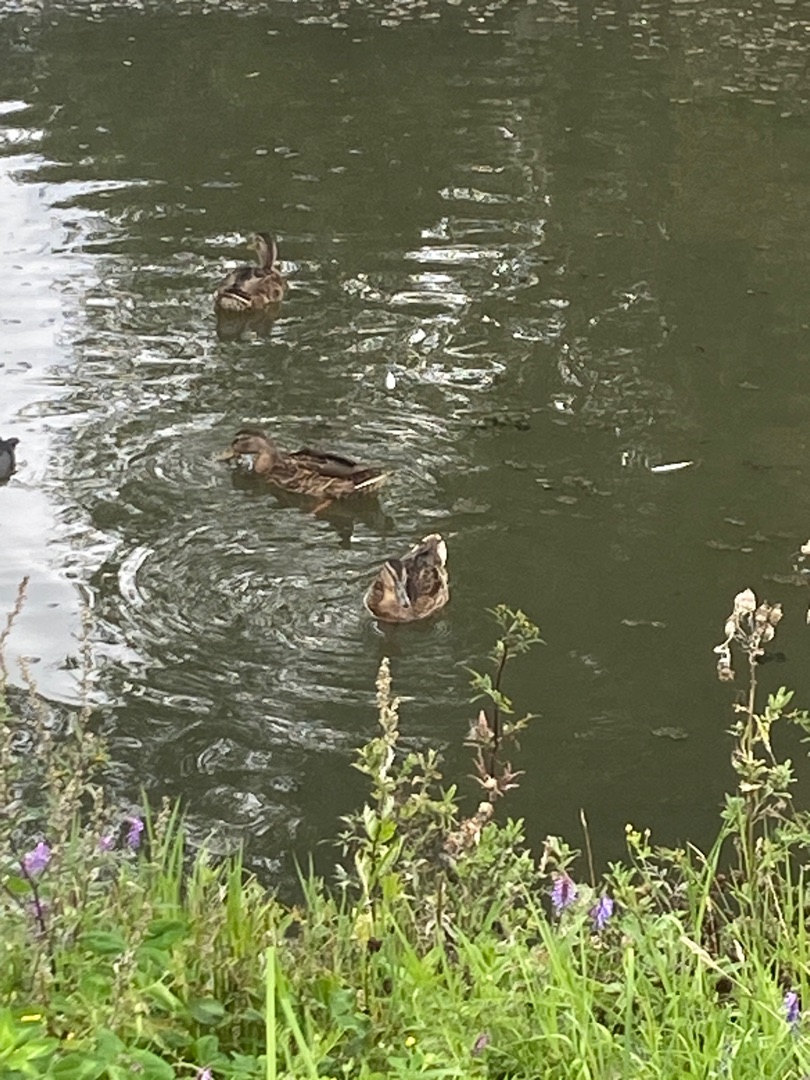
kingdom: Animalia
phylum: Chordata
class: Aves
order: Anseriformes
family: Anatidae
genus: Anas
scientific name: Anas platyrhynchos
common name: Gråand
